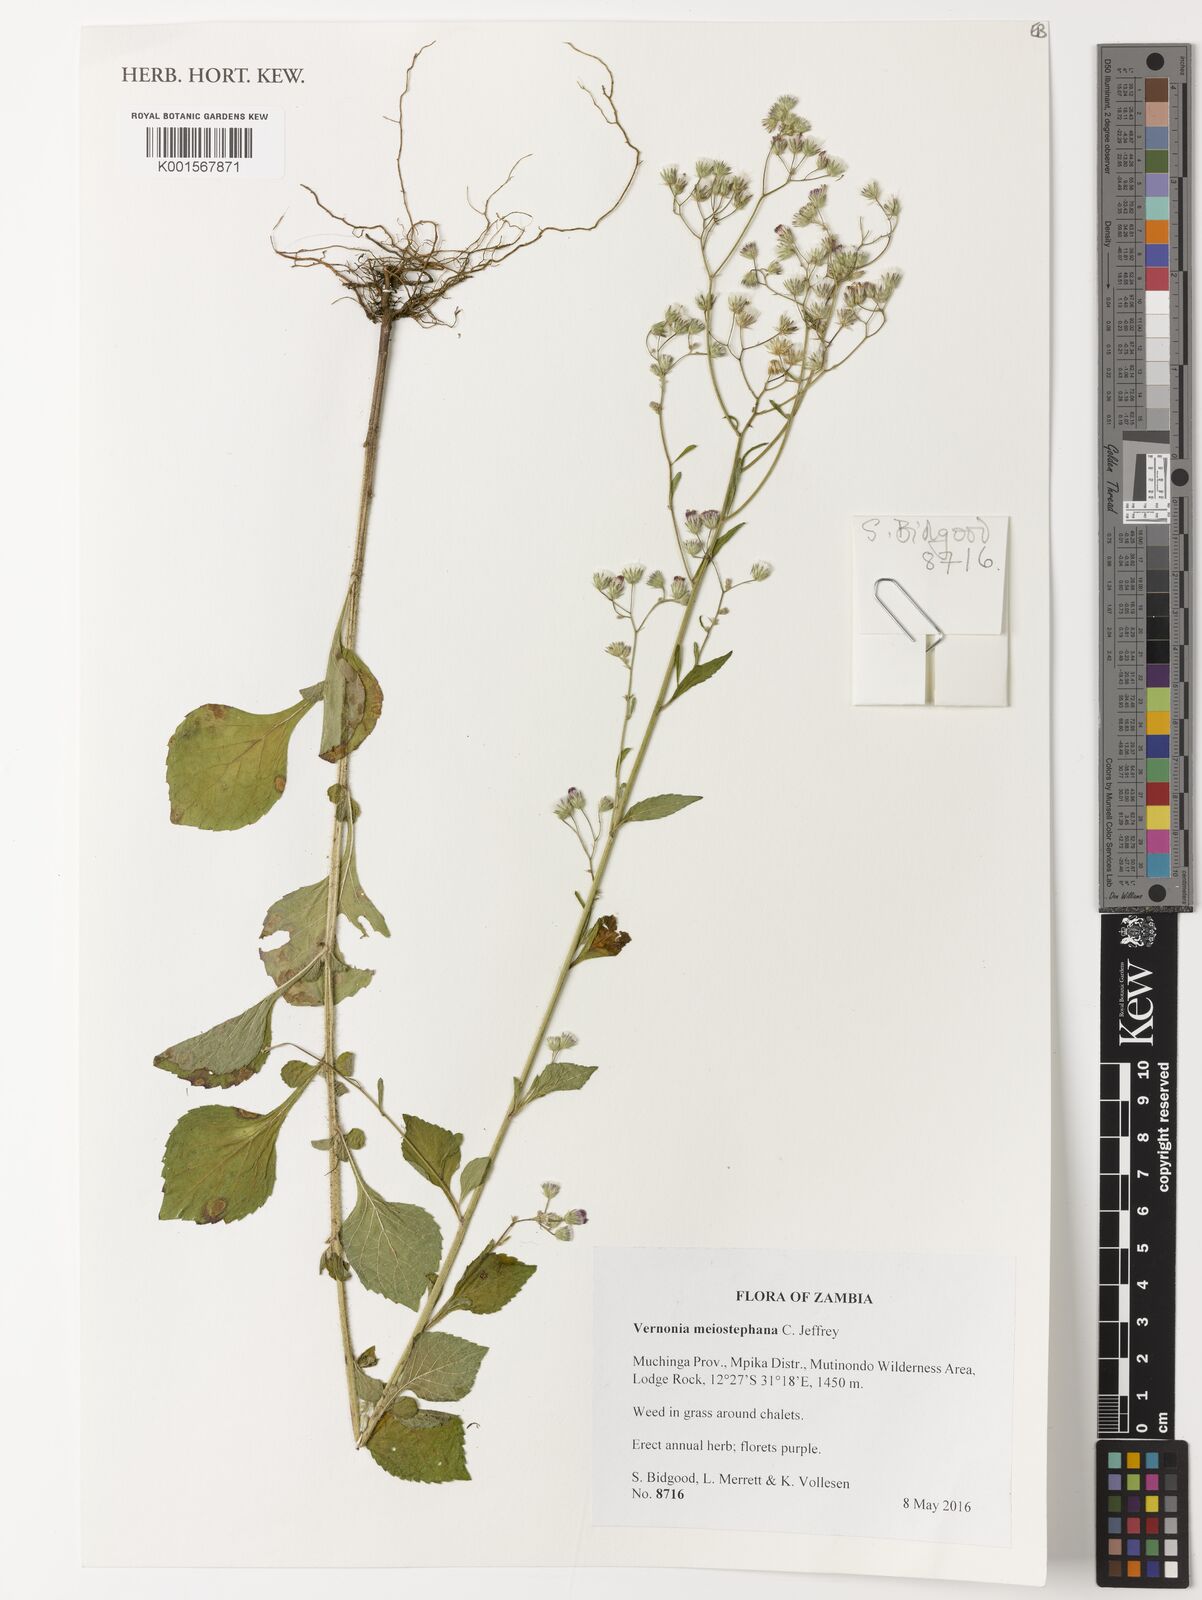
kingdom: Plantae
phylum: Tracheophyta
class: Magnoliopsida
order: Asterales
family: Asteraceae
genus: Cyanthillium
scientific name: Cyanthillium vernonioides
